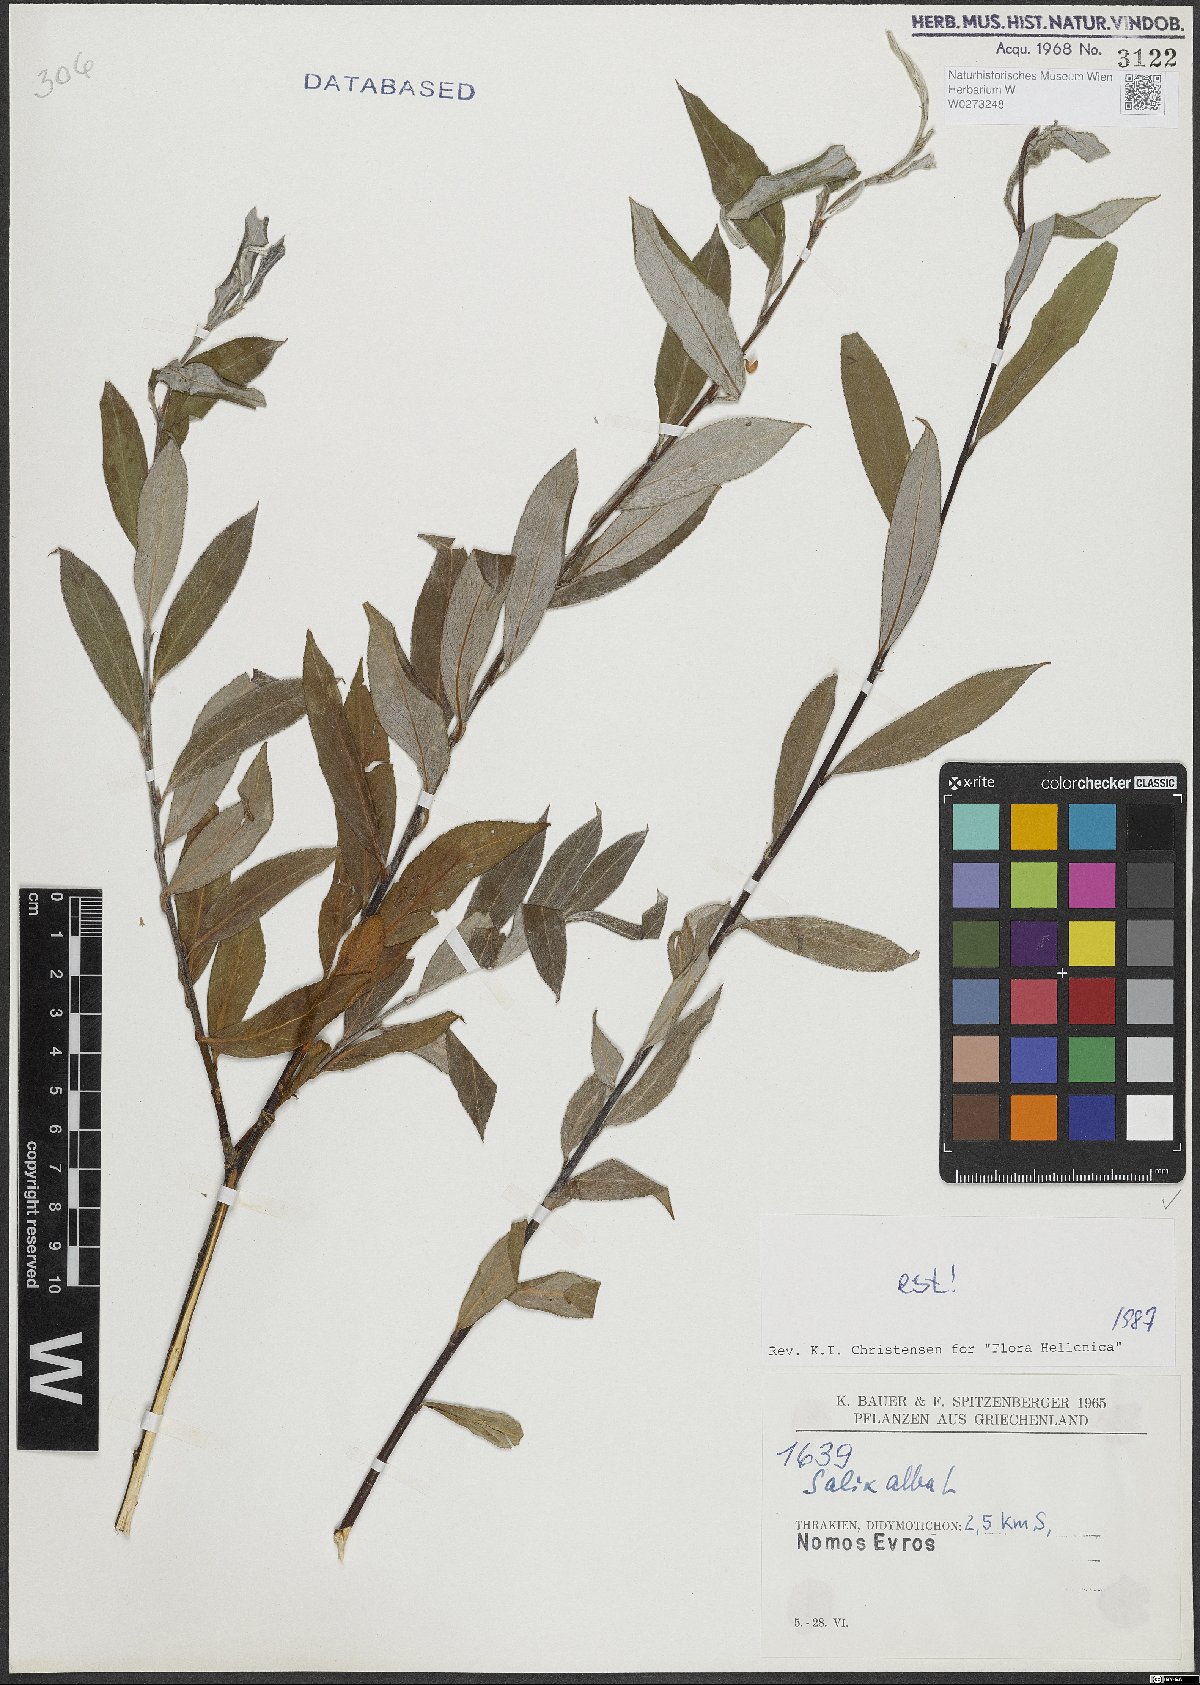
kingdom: Plantae
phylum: Tracheophyta
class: Magnoliopsida
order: Malpighiales
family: Salicaceae
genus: Salix
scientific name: Salix alba
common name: White willow
